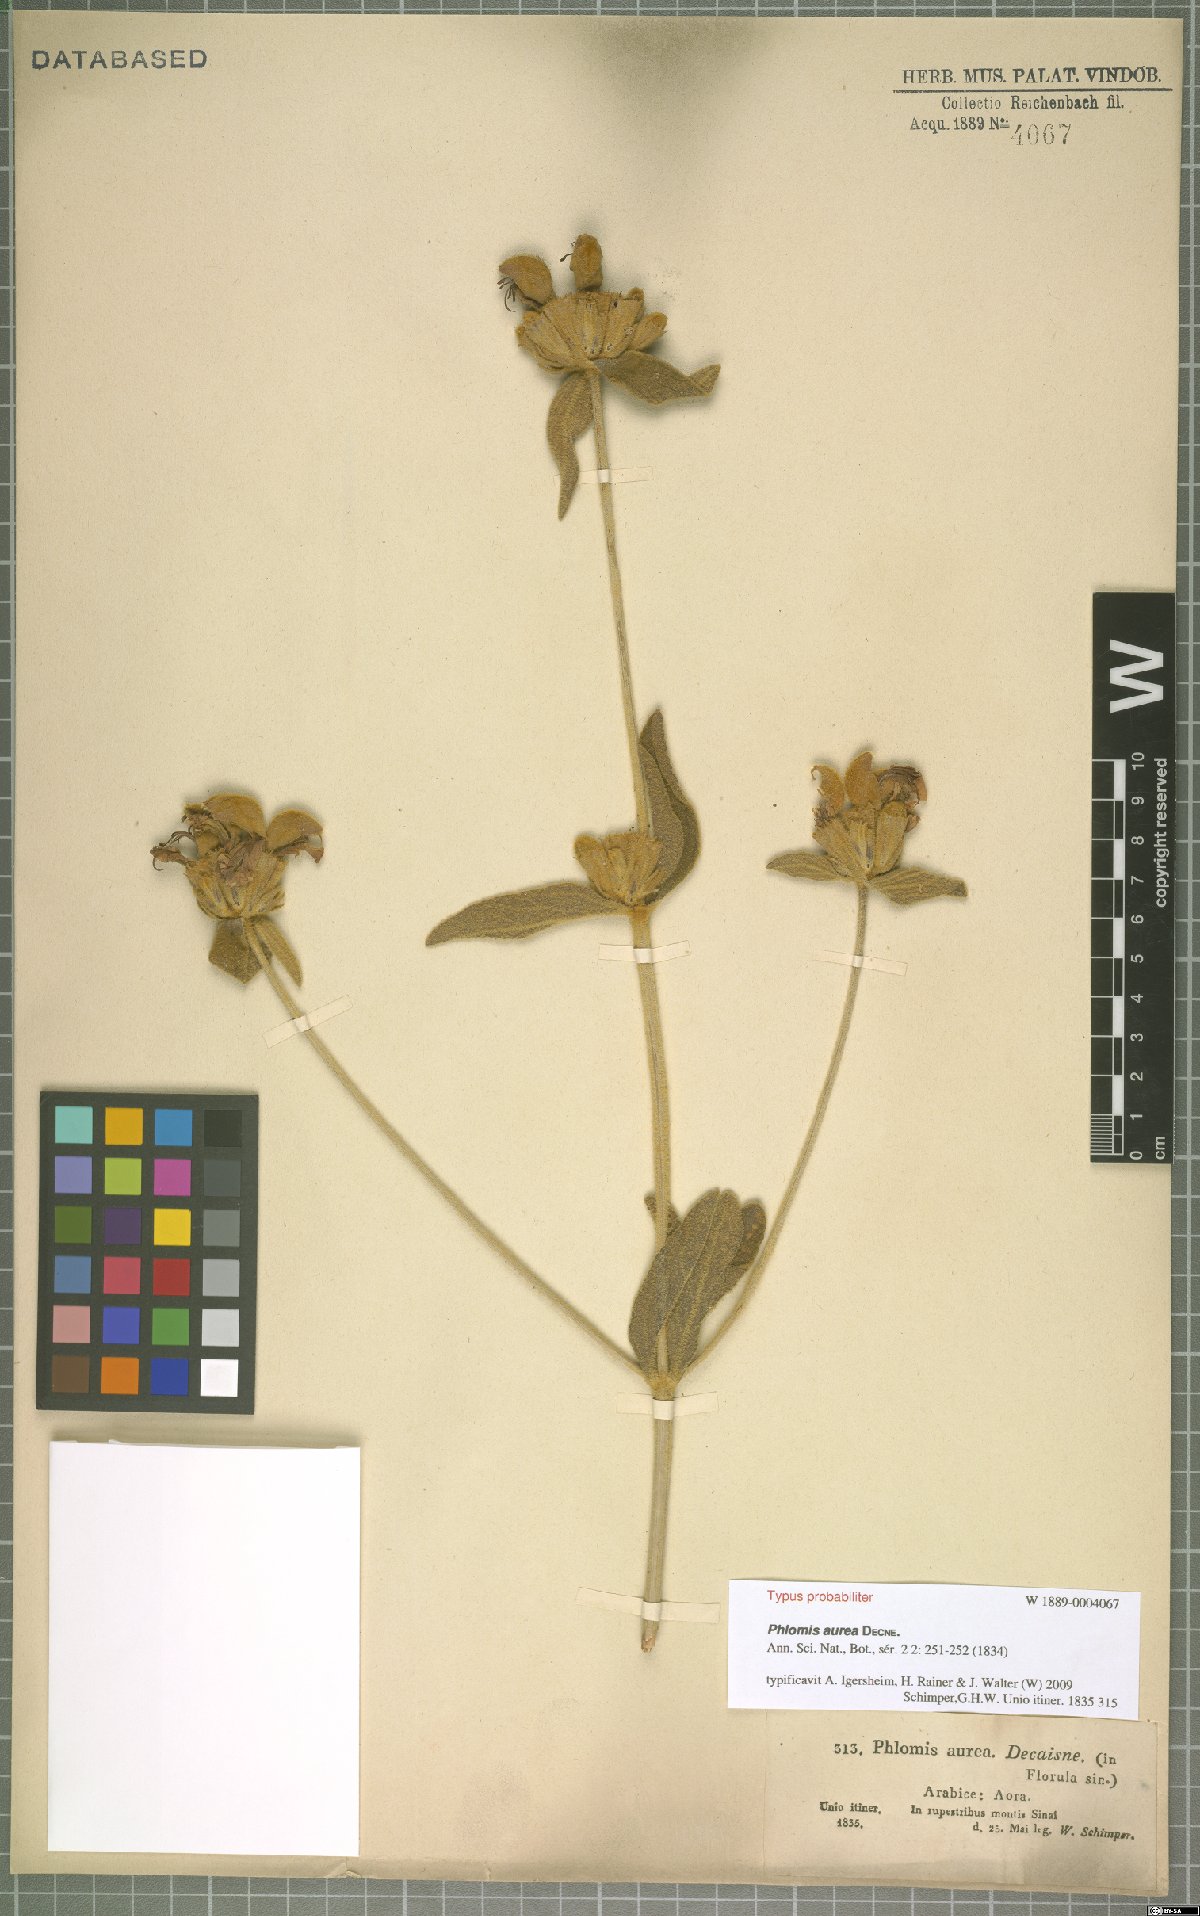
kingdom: Plantae
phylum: Tracheophyta
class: Magnoliopsida
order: Lamiales
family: Lamiaceae
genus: Phlomis
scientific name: Phlomis aurea
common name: Sinai jerusalem sage
